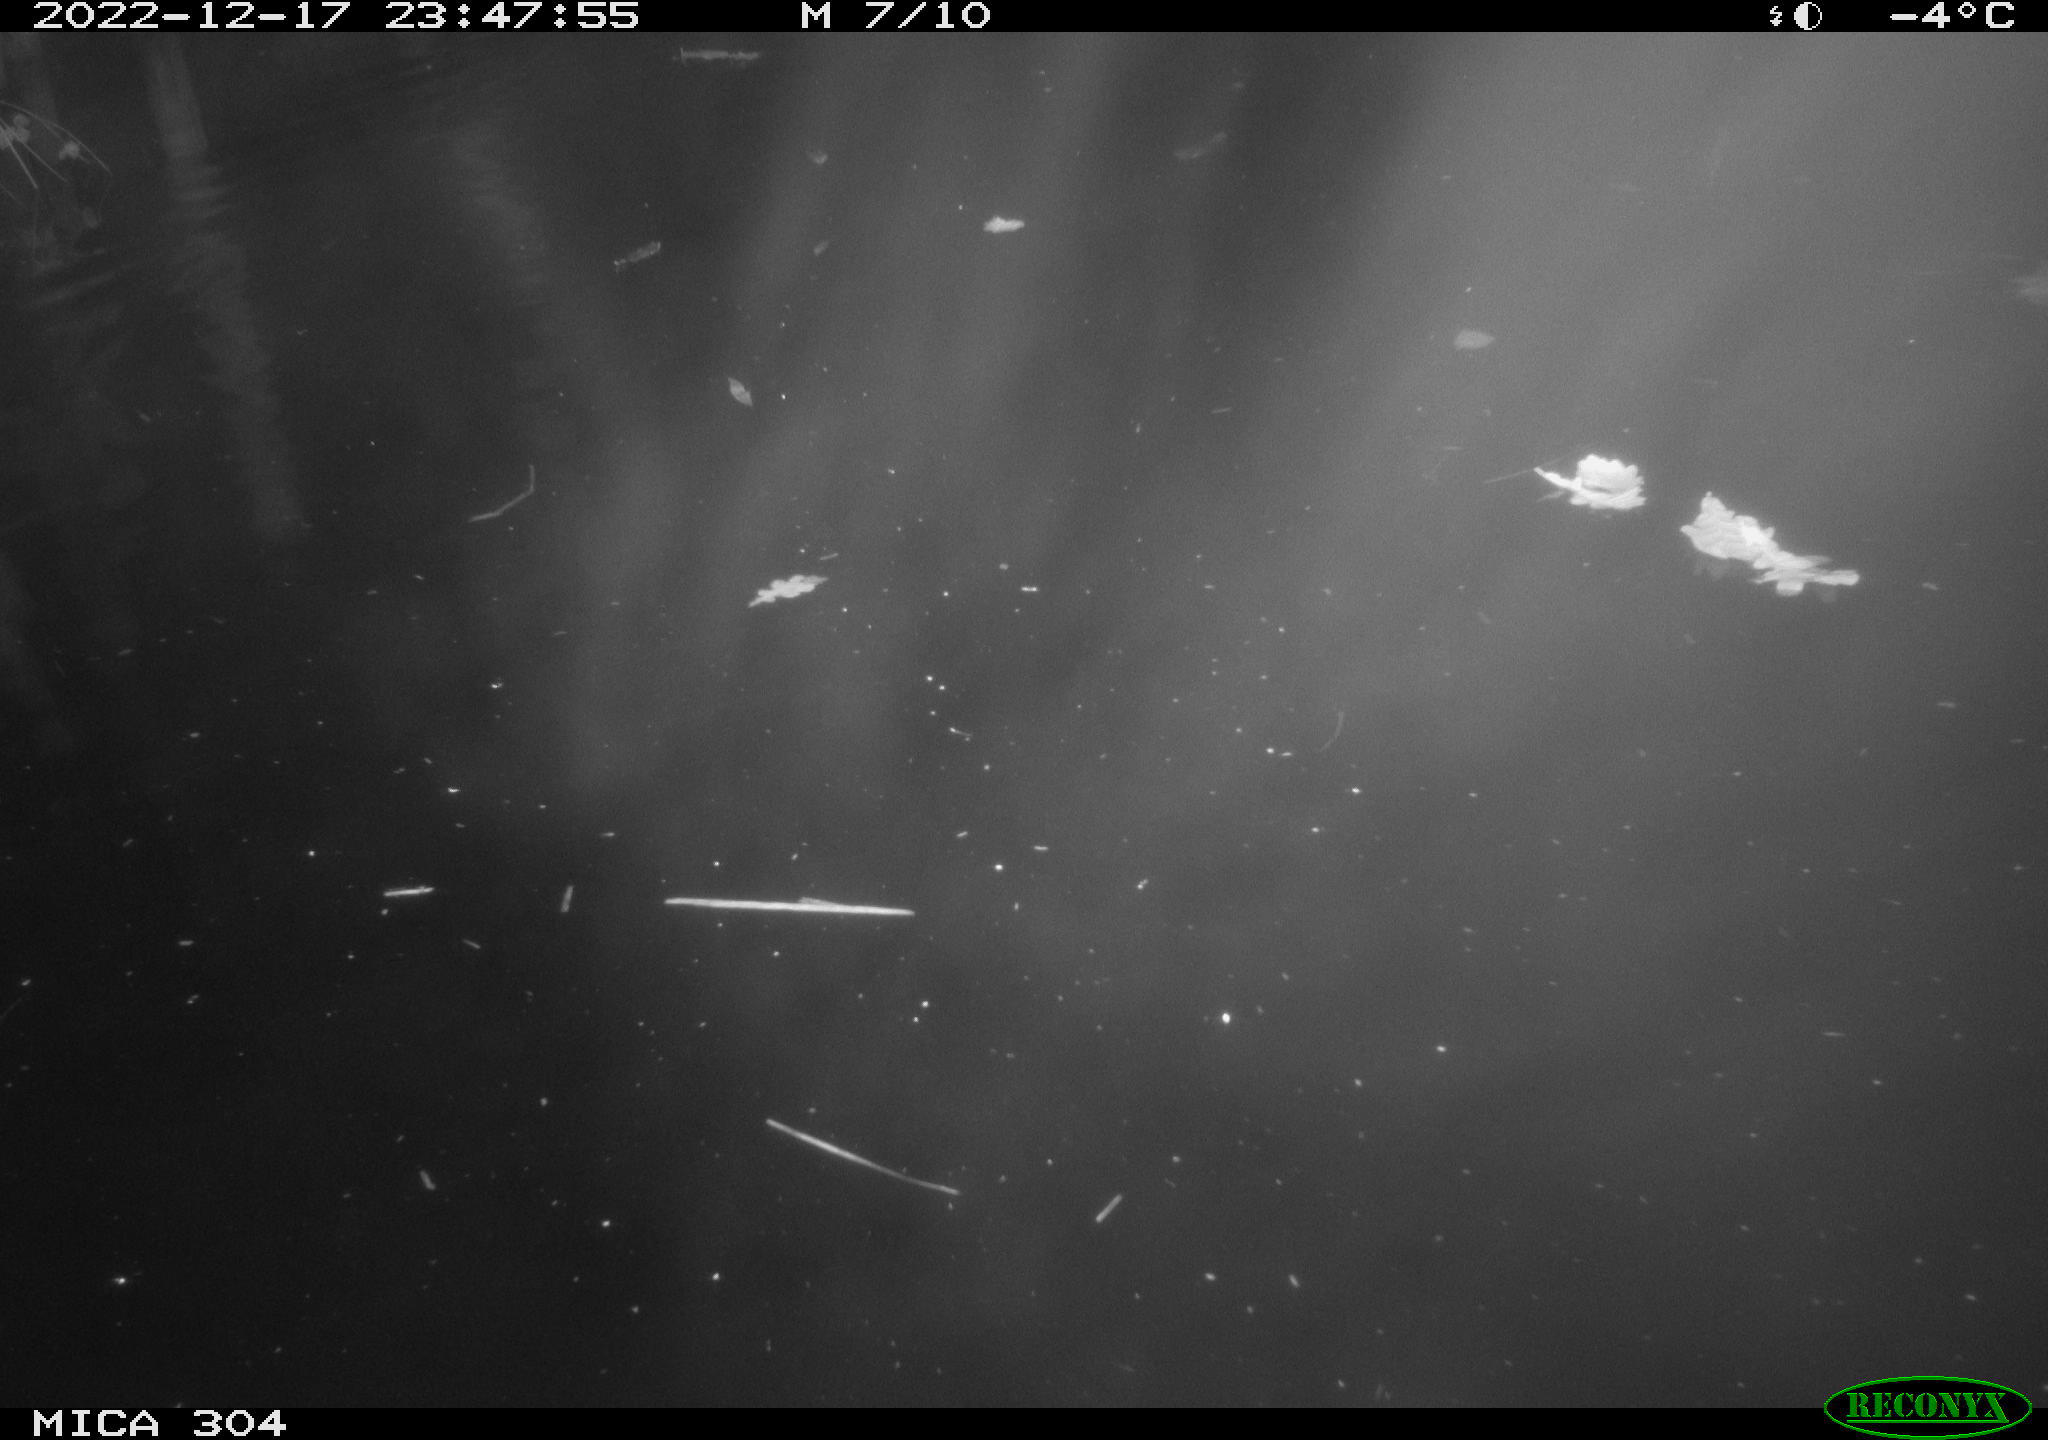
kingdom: Animalia
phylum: Chordata
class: Mammalia
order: Rodentia
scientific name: Rodentia
